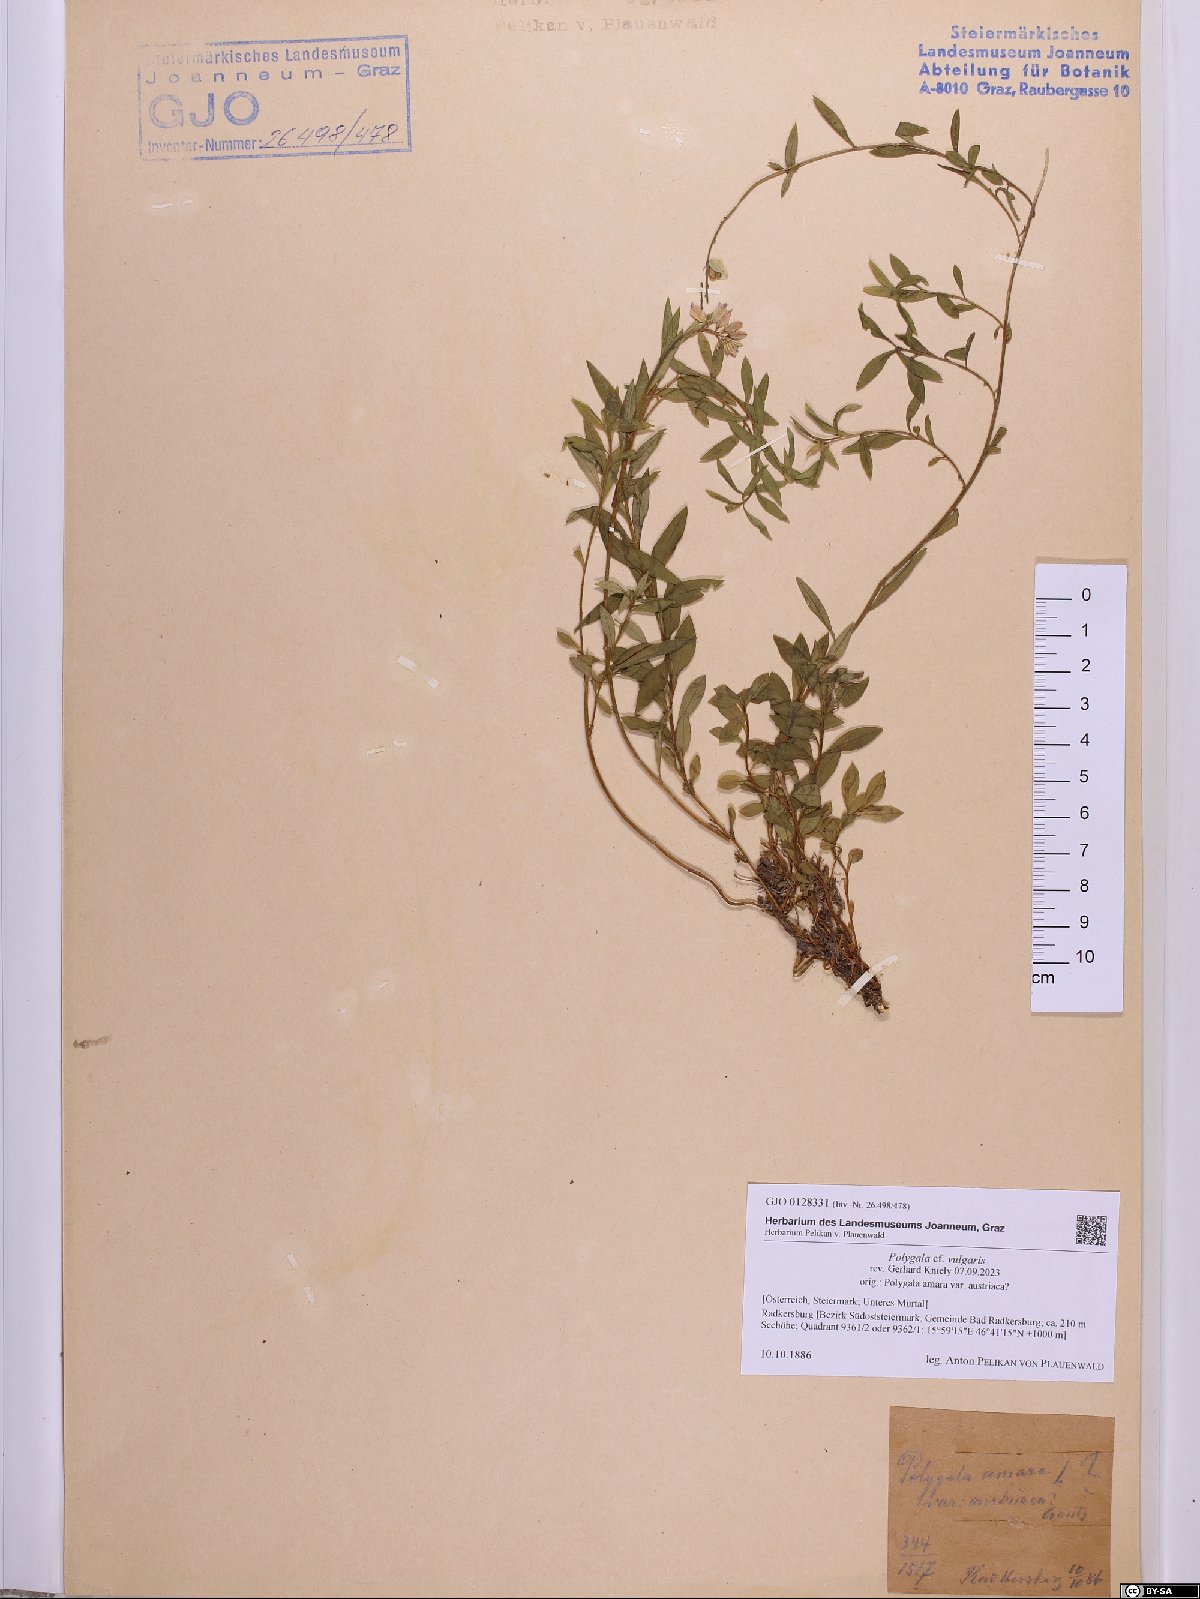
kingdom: Plantae
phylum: Tracheophyta
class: Magnoliopsida
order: Fabales
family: Polygalaceae
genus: Polygala
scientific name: Polygala vulgaris
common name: Common milkwort
